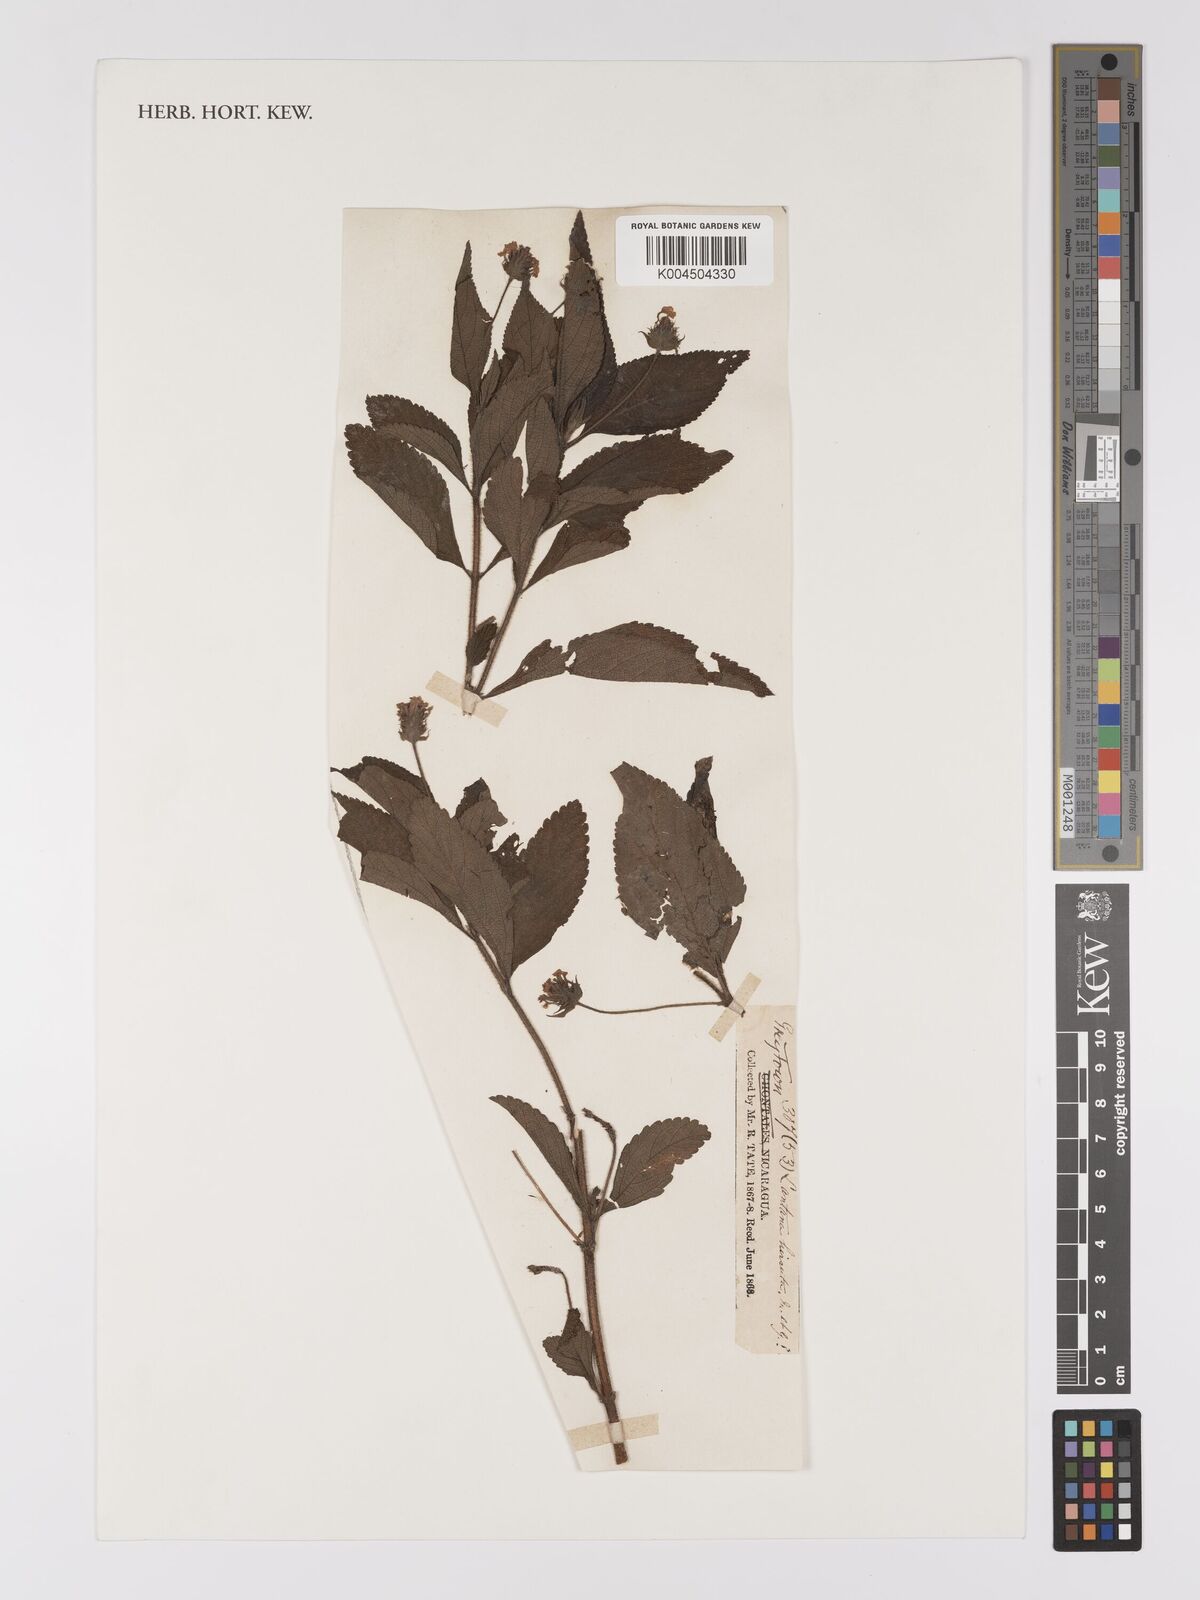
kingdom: Plantae
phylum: Tracheophyta
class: Magnoliopsida
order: Lamiales
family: Verbenaceae
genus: Lantana
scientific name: Lantana hirsuta
